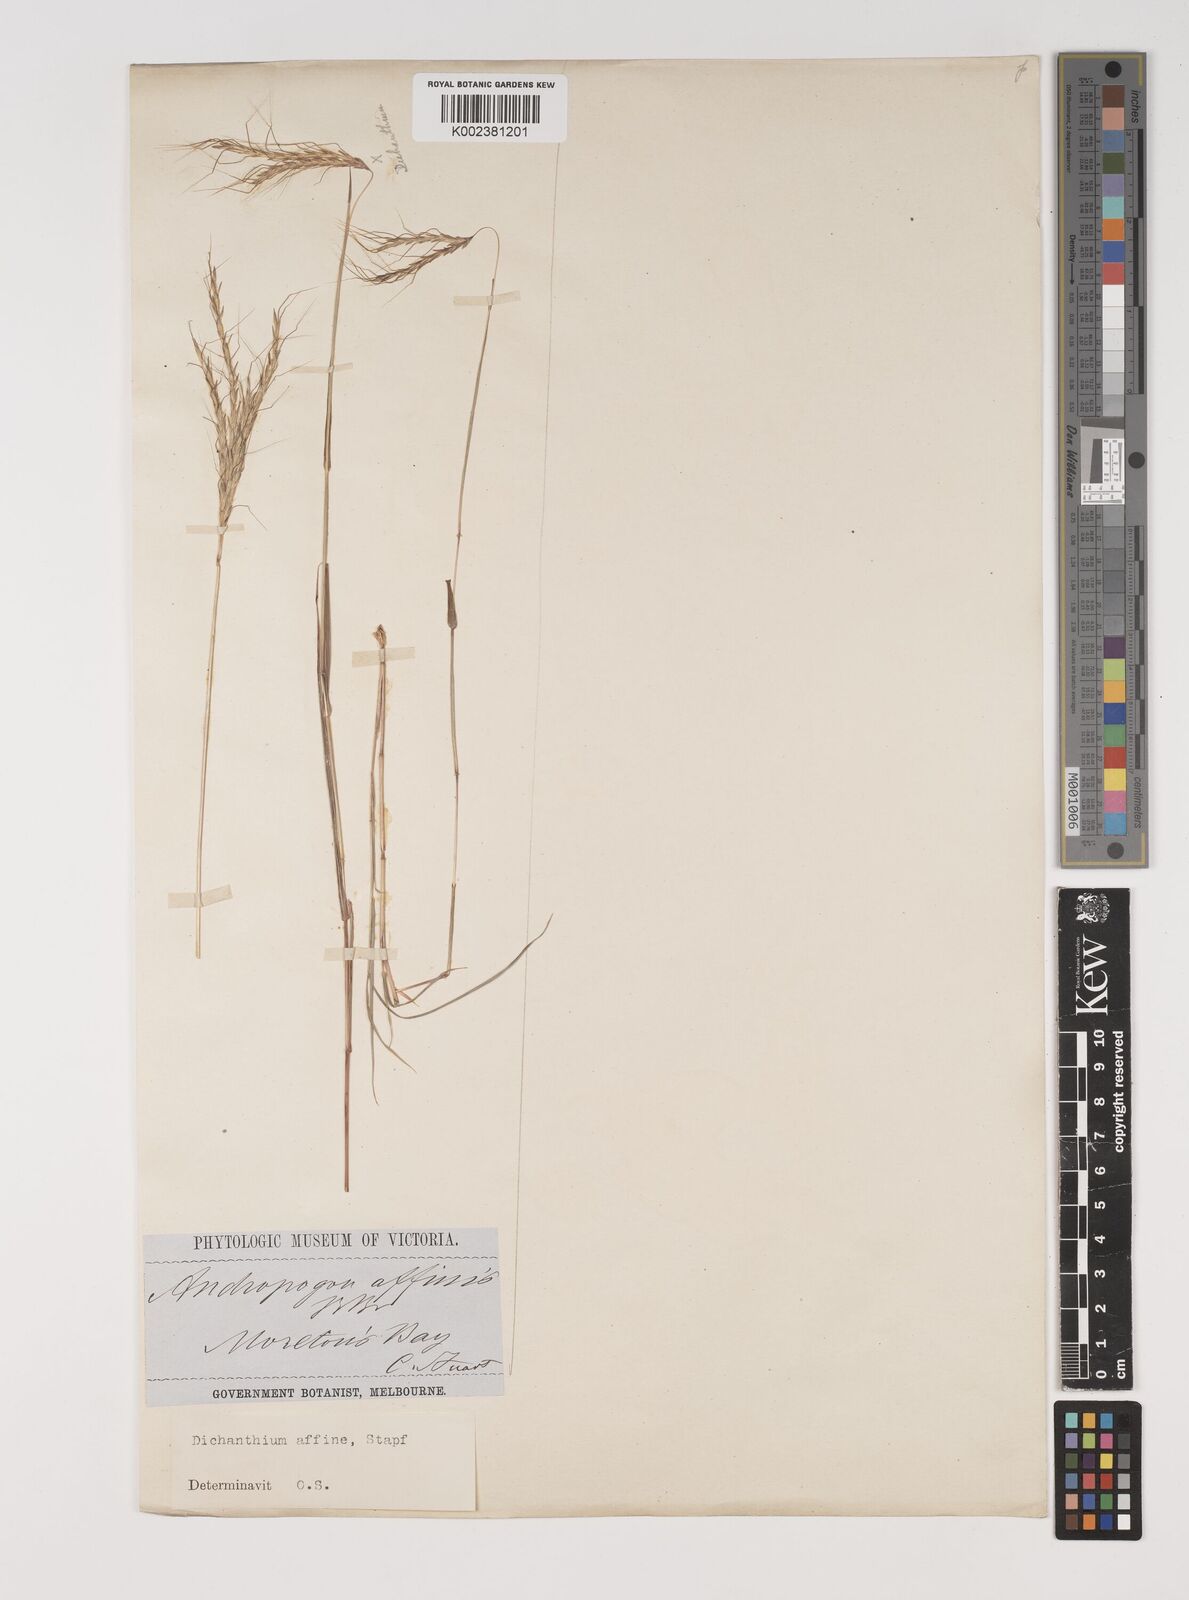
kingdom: Plantae
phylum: Tracheophyta
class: Liliopsida
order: Poales
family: Poaceae
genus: Bothriochloa
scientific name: Bothriochloa macra
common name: Pitted beard grass
